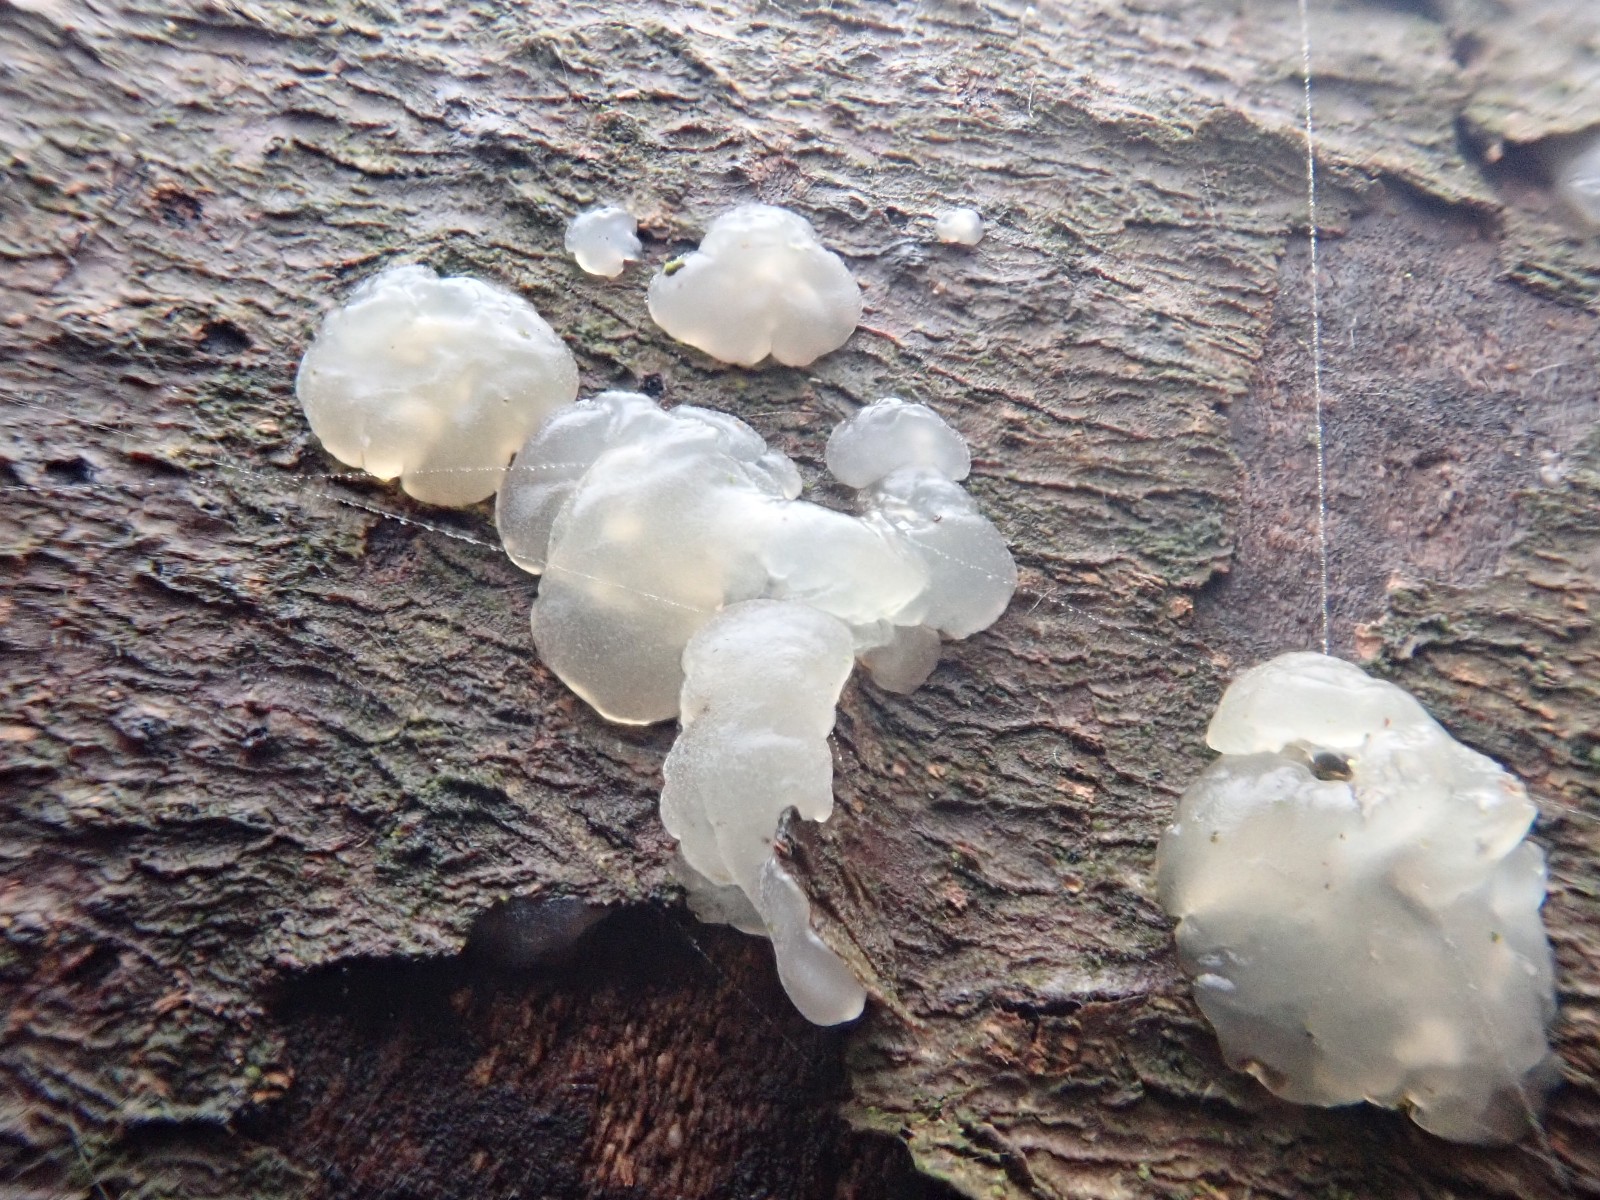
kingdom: Fungi
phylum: Basidiomycota
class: Agaricomycetes
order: Auriculariales
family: Hyaloriaceae
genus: Myxarium
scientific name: Myxarium nucleatum
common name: klar bævretop
